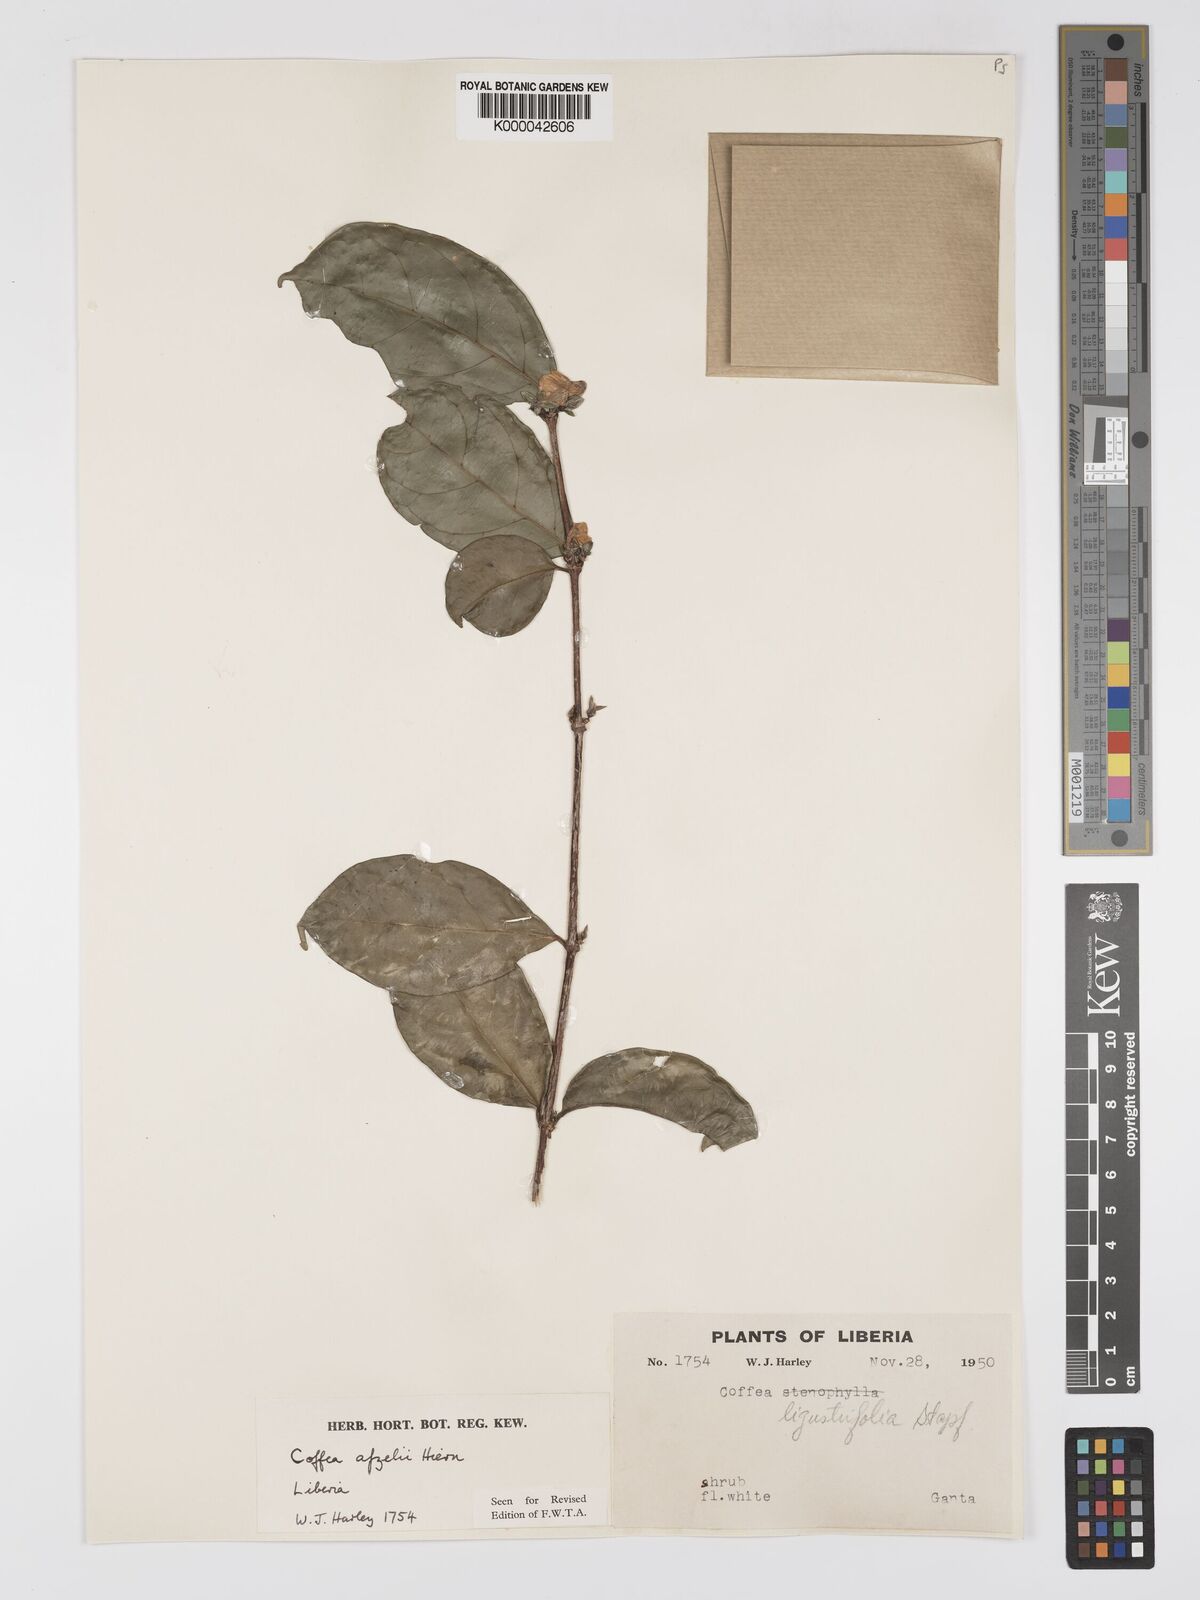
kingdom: Plantae
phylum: Tracheophyta
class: Magnoliopsida
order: Gentianales
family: Rubiaceae
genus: Argocoffeopsis
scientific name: Argocoffeopsis afzelii
